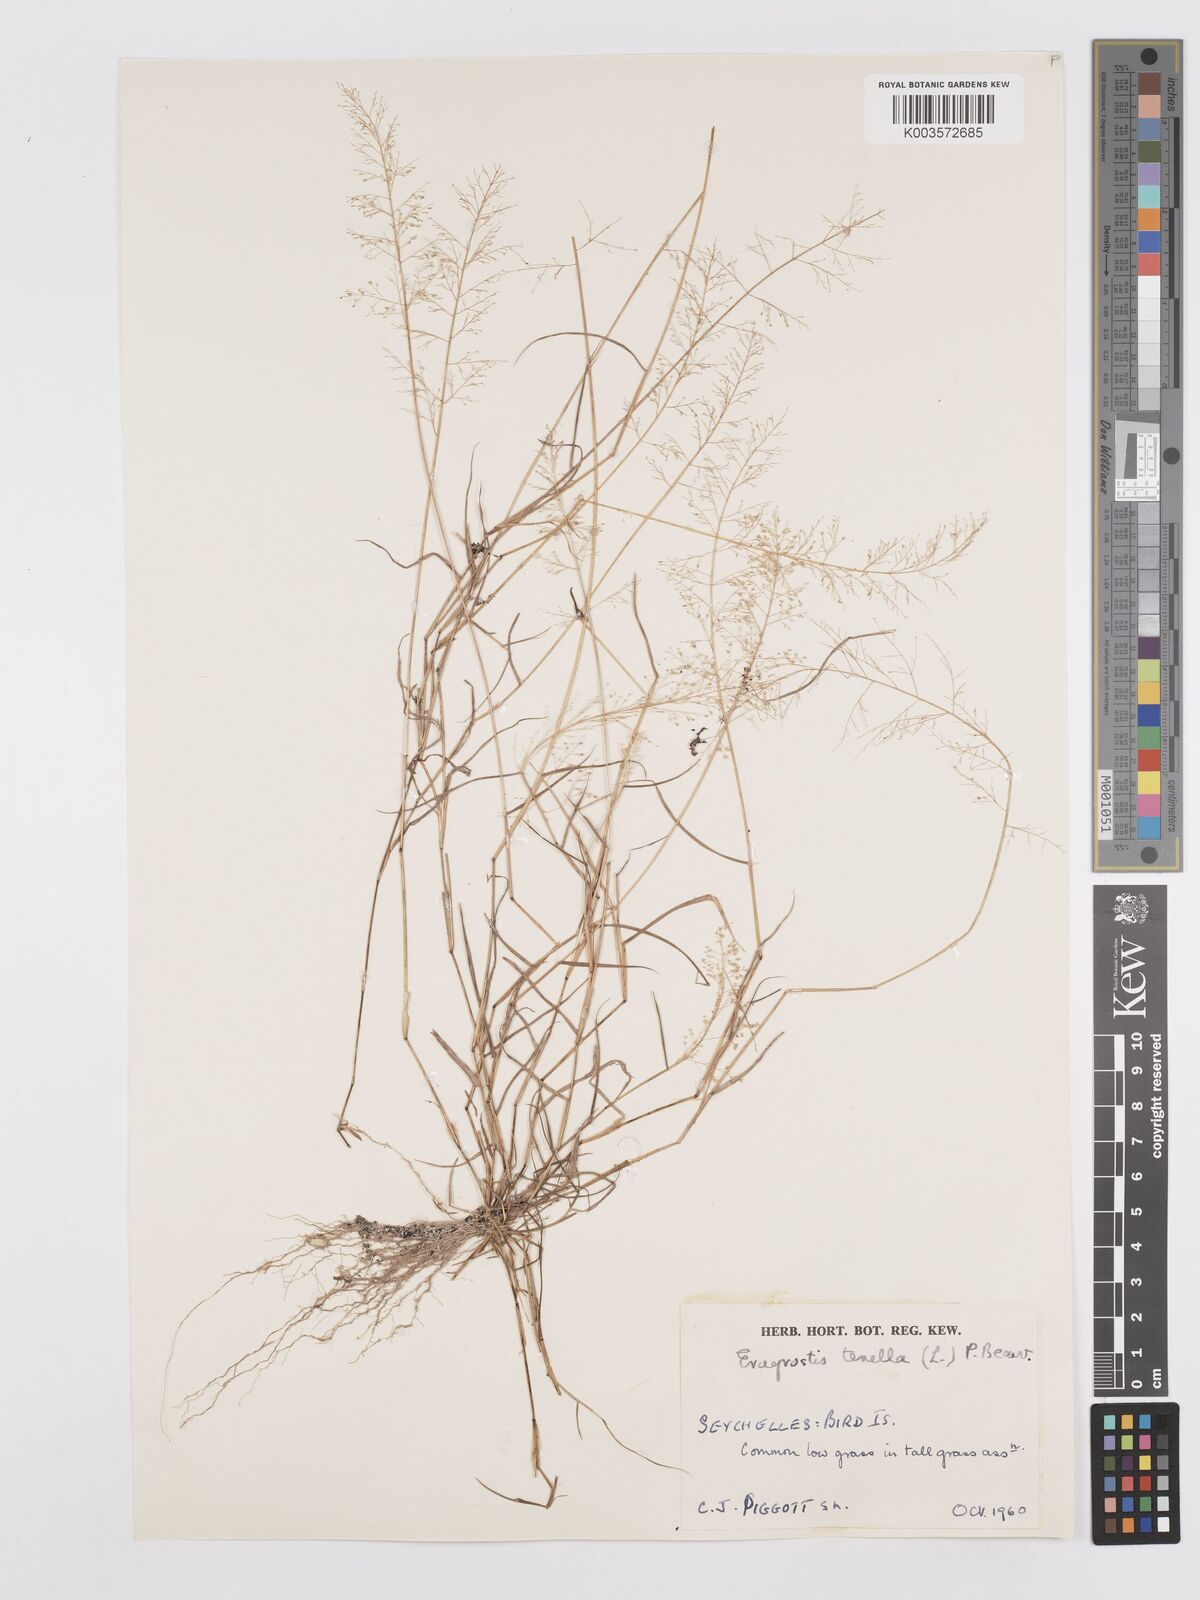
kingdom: Plantae
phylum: Tracheophyta
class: Liliopsida
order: Poales
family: Poaceae
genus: Eragrostis
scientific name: Eragrostis tenella
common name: Japanese lovegrass
